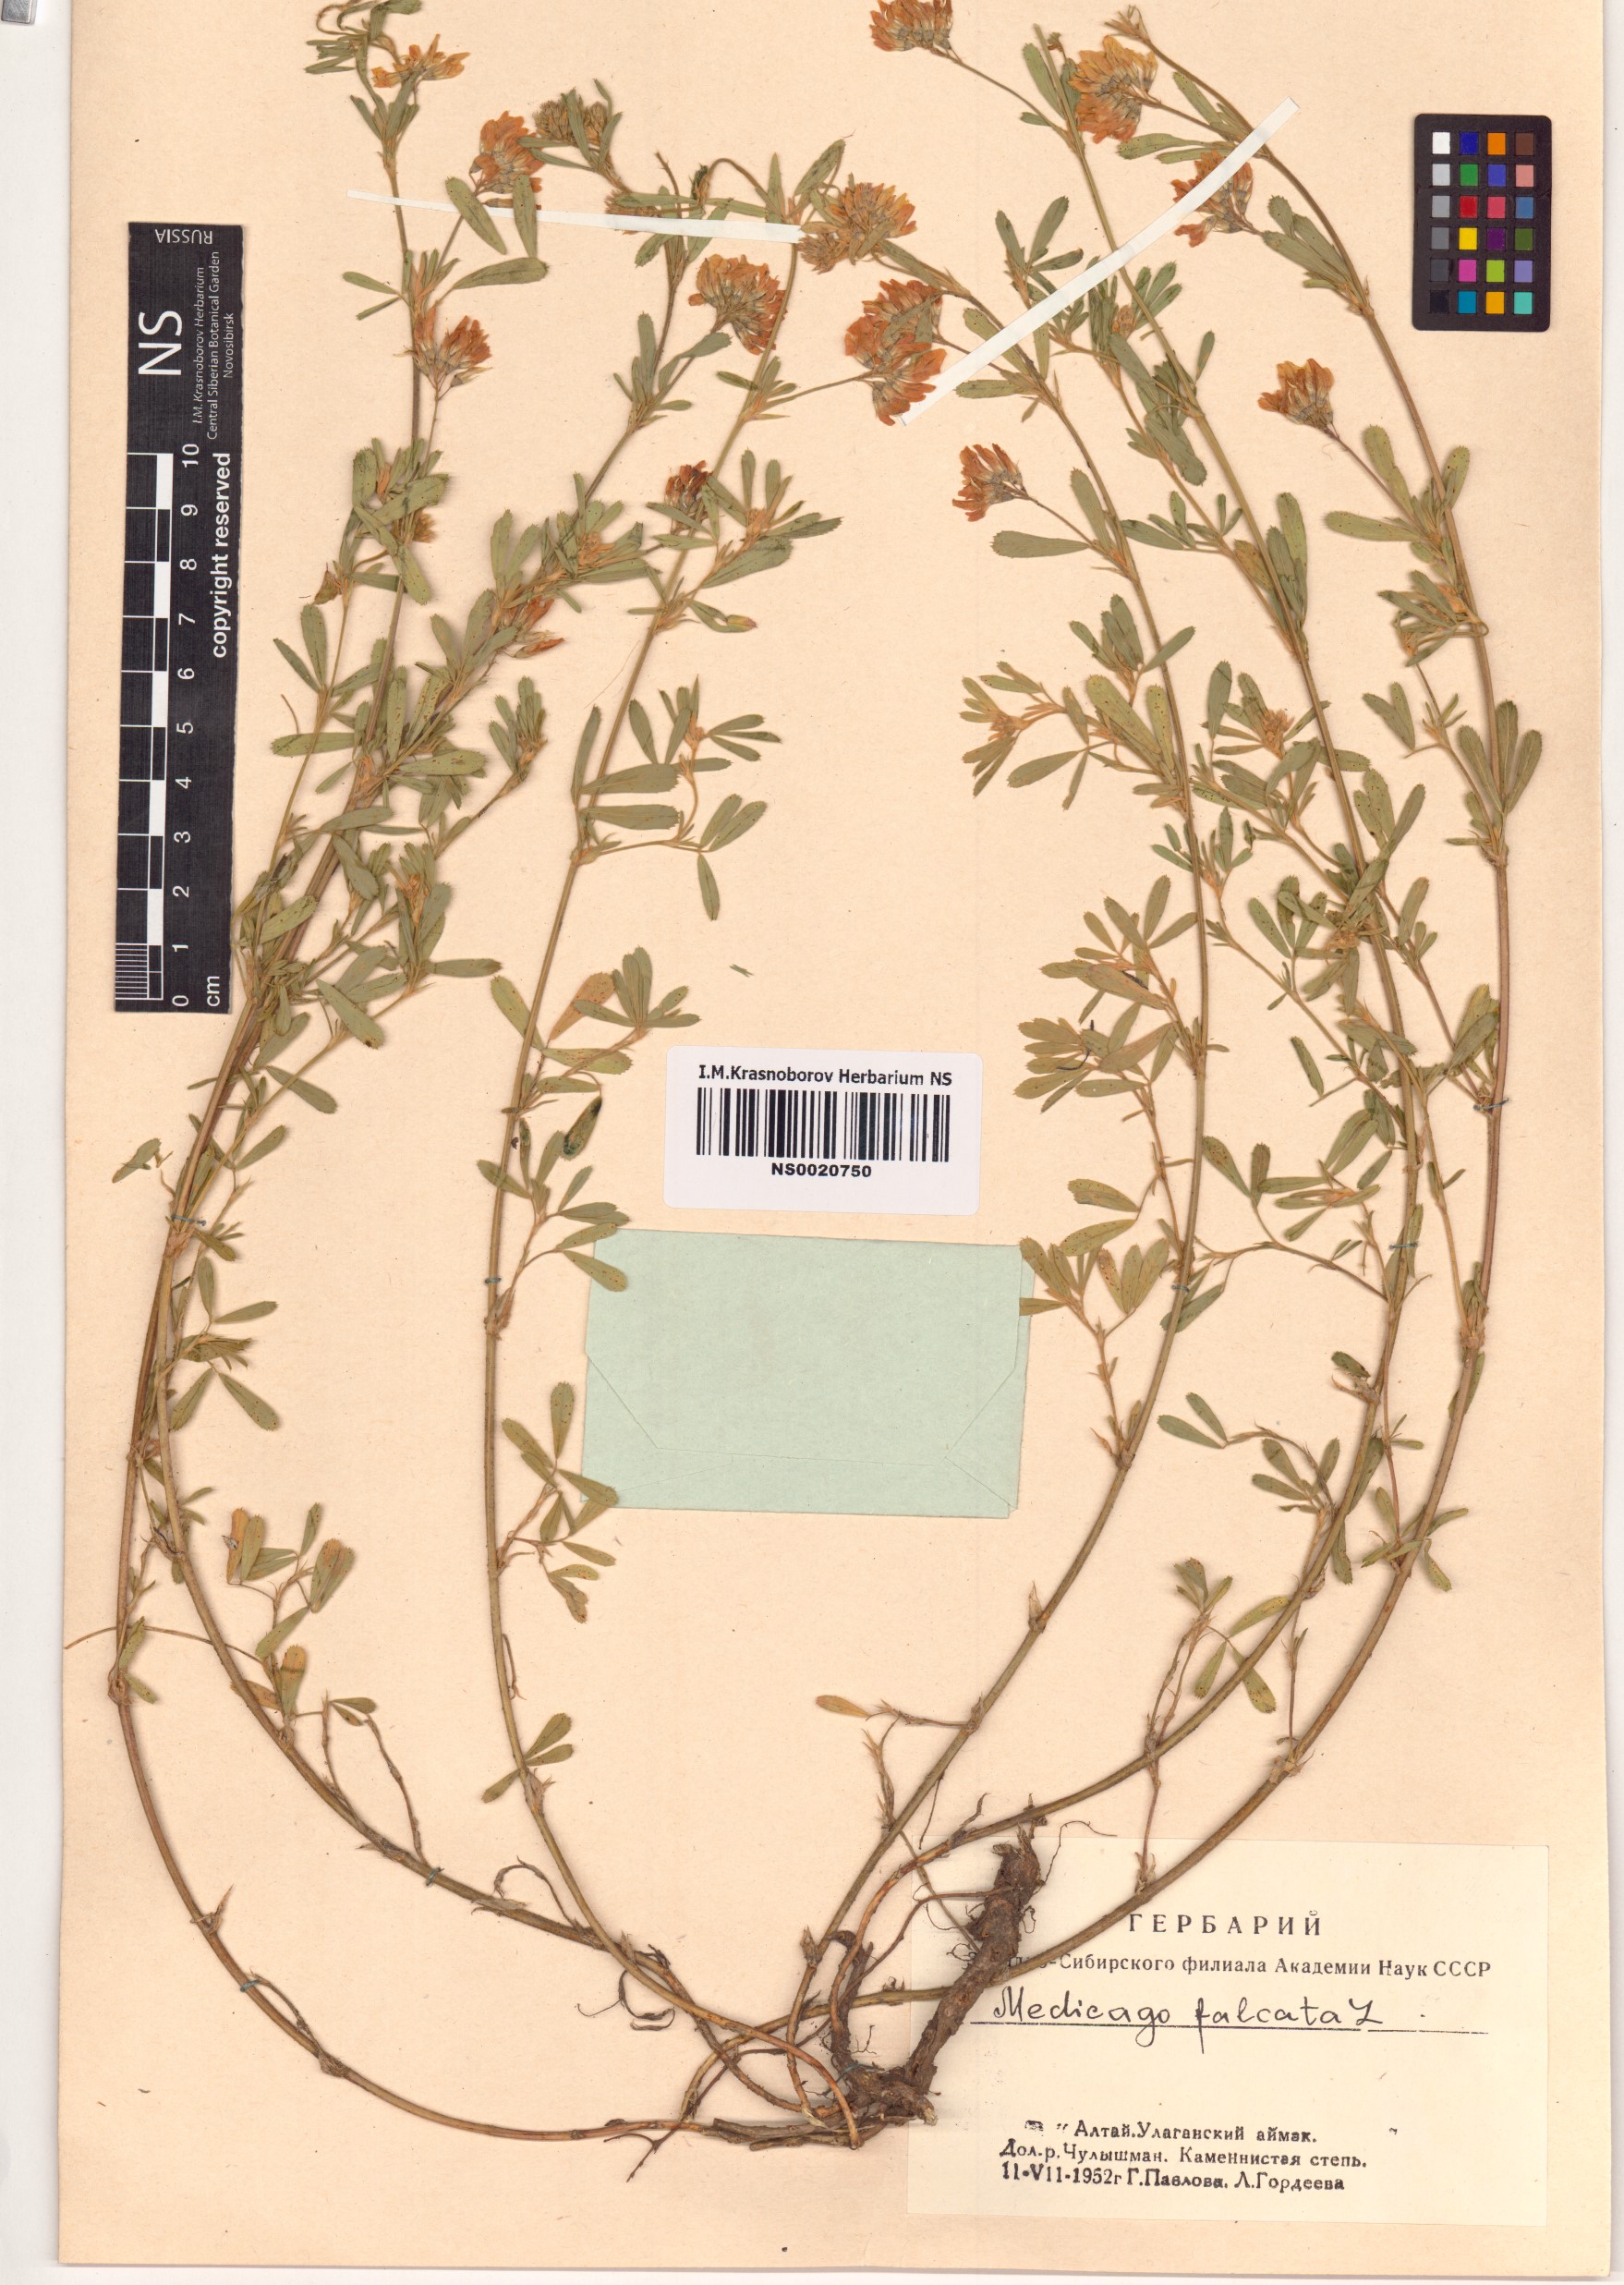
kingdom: Plantae
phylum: Tracheophyta
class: Magnoliopsida
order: Fabales
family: Fabaceae
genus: Medicago
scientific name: Medicago falcata
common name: Sickle medick
